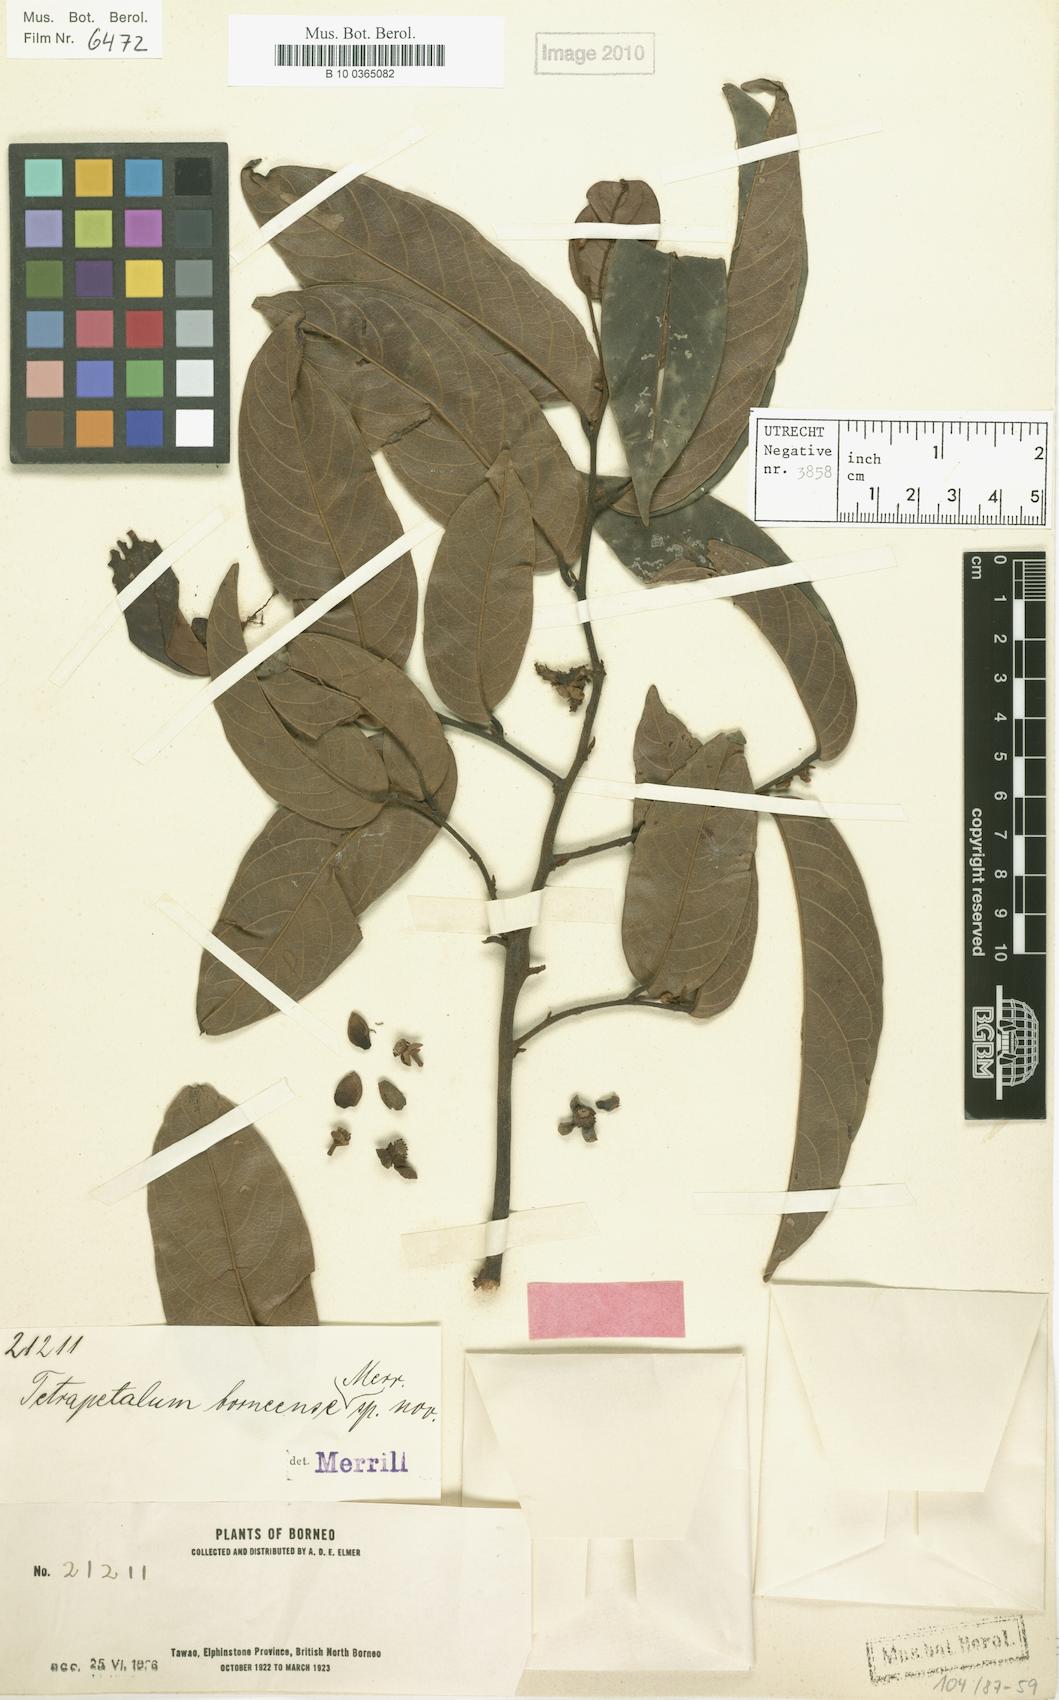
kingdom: Plantae
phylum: Tracheophyta
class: Magnoliopsida
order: Magnoliales
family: Annonaceae
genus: Uvaria
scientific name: Uvaria borneensis
